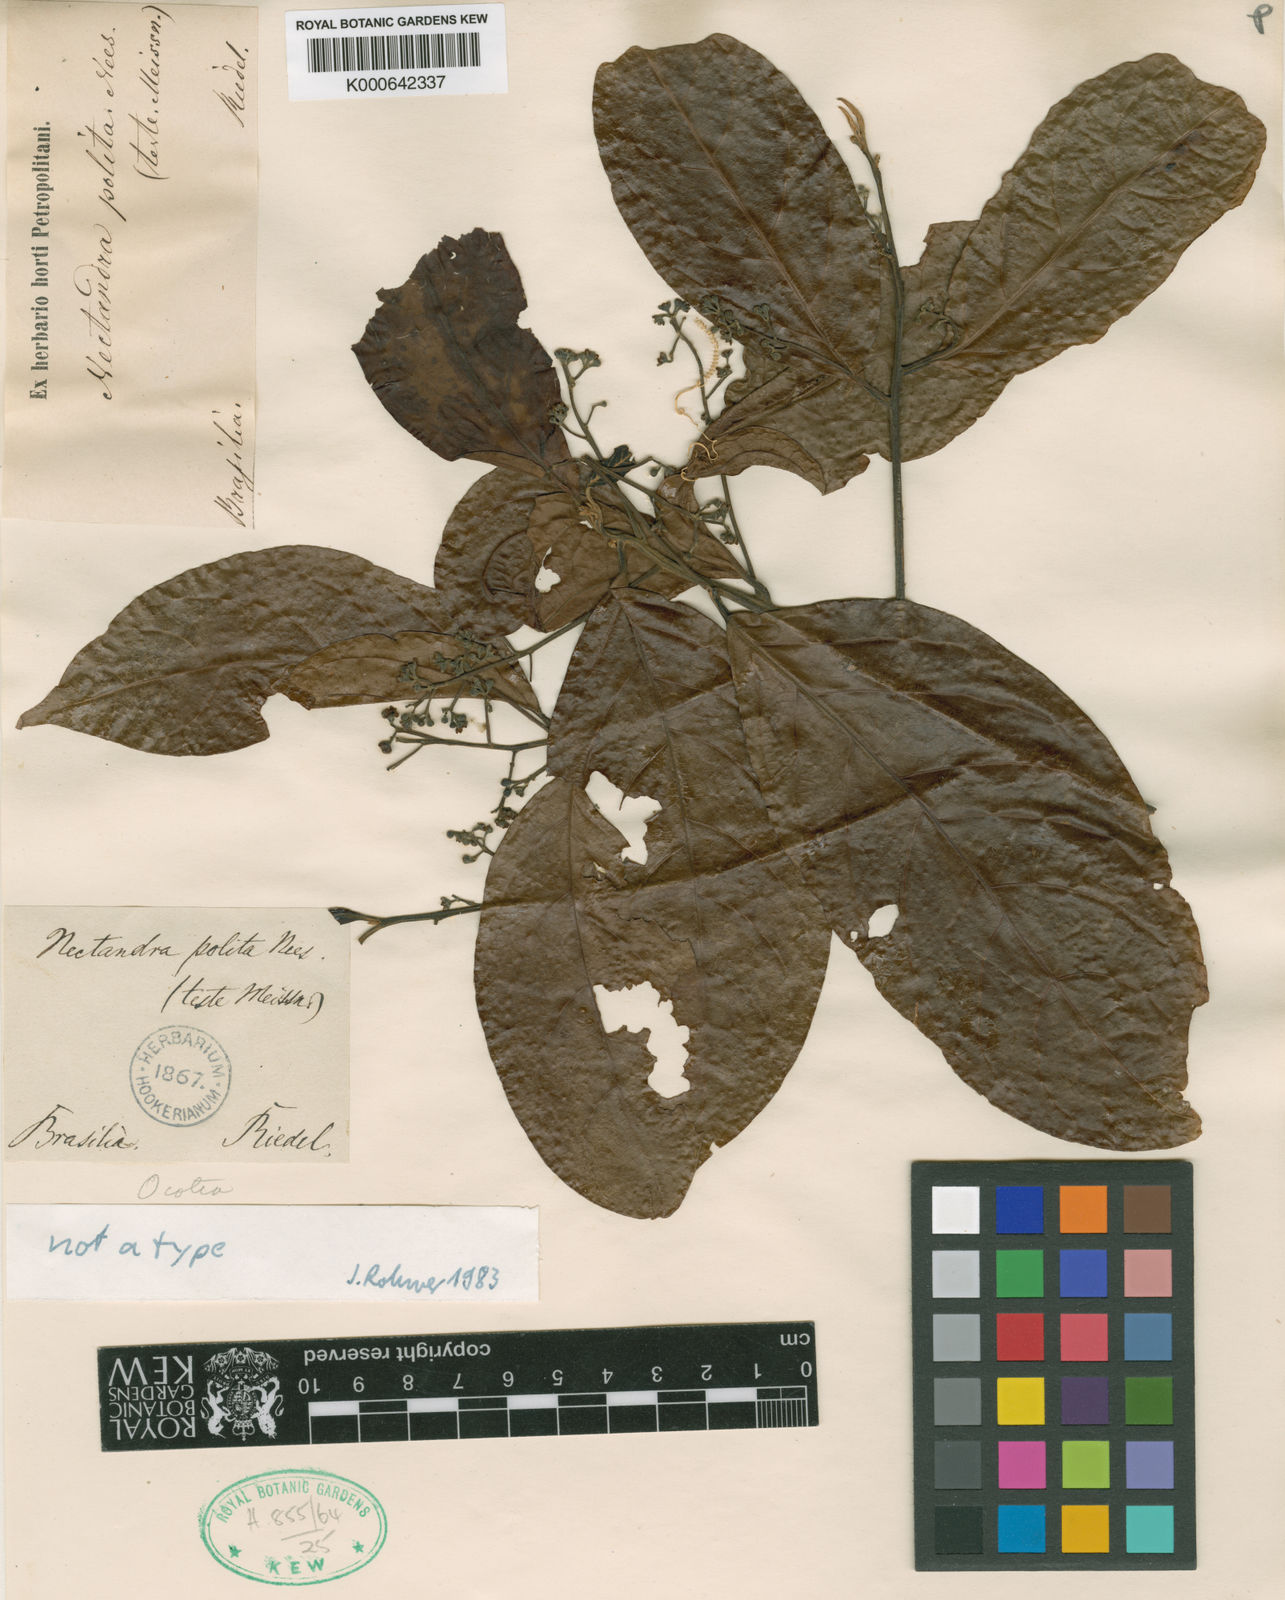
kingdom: Plantae
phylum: Tracheophyta
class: Magnoliopsida
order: Laurales
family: Lauraceae
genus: Damburneya
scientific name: Damburneya purpurea
